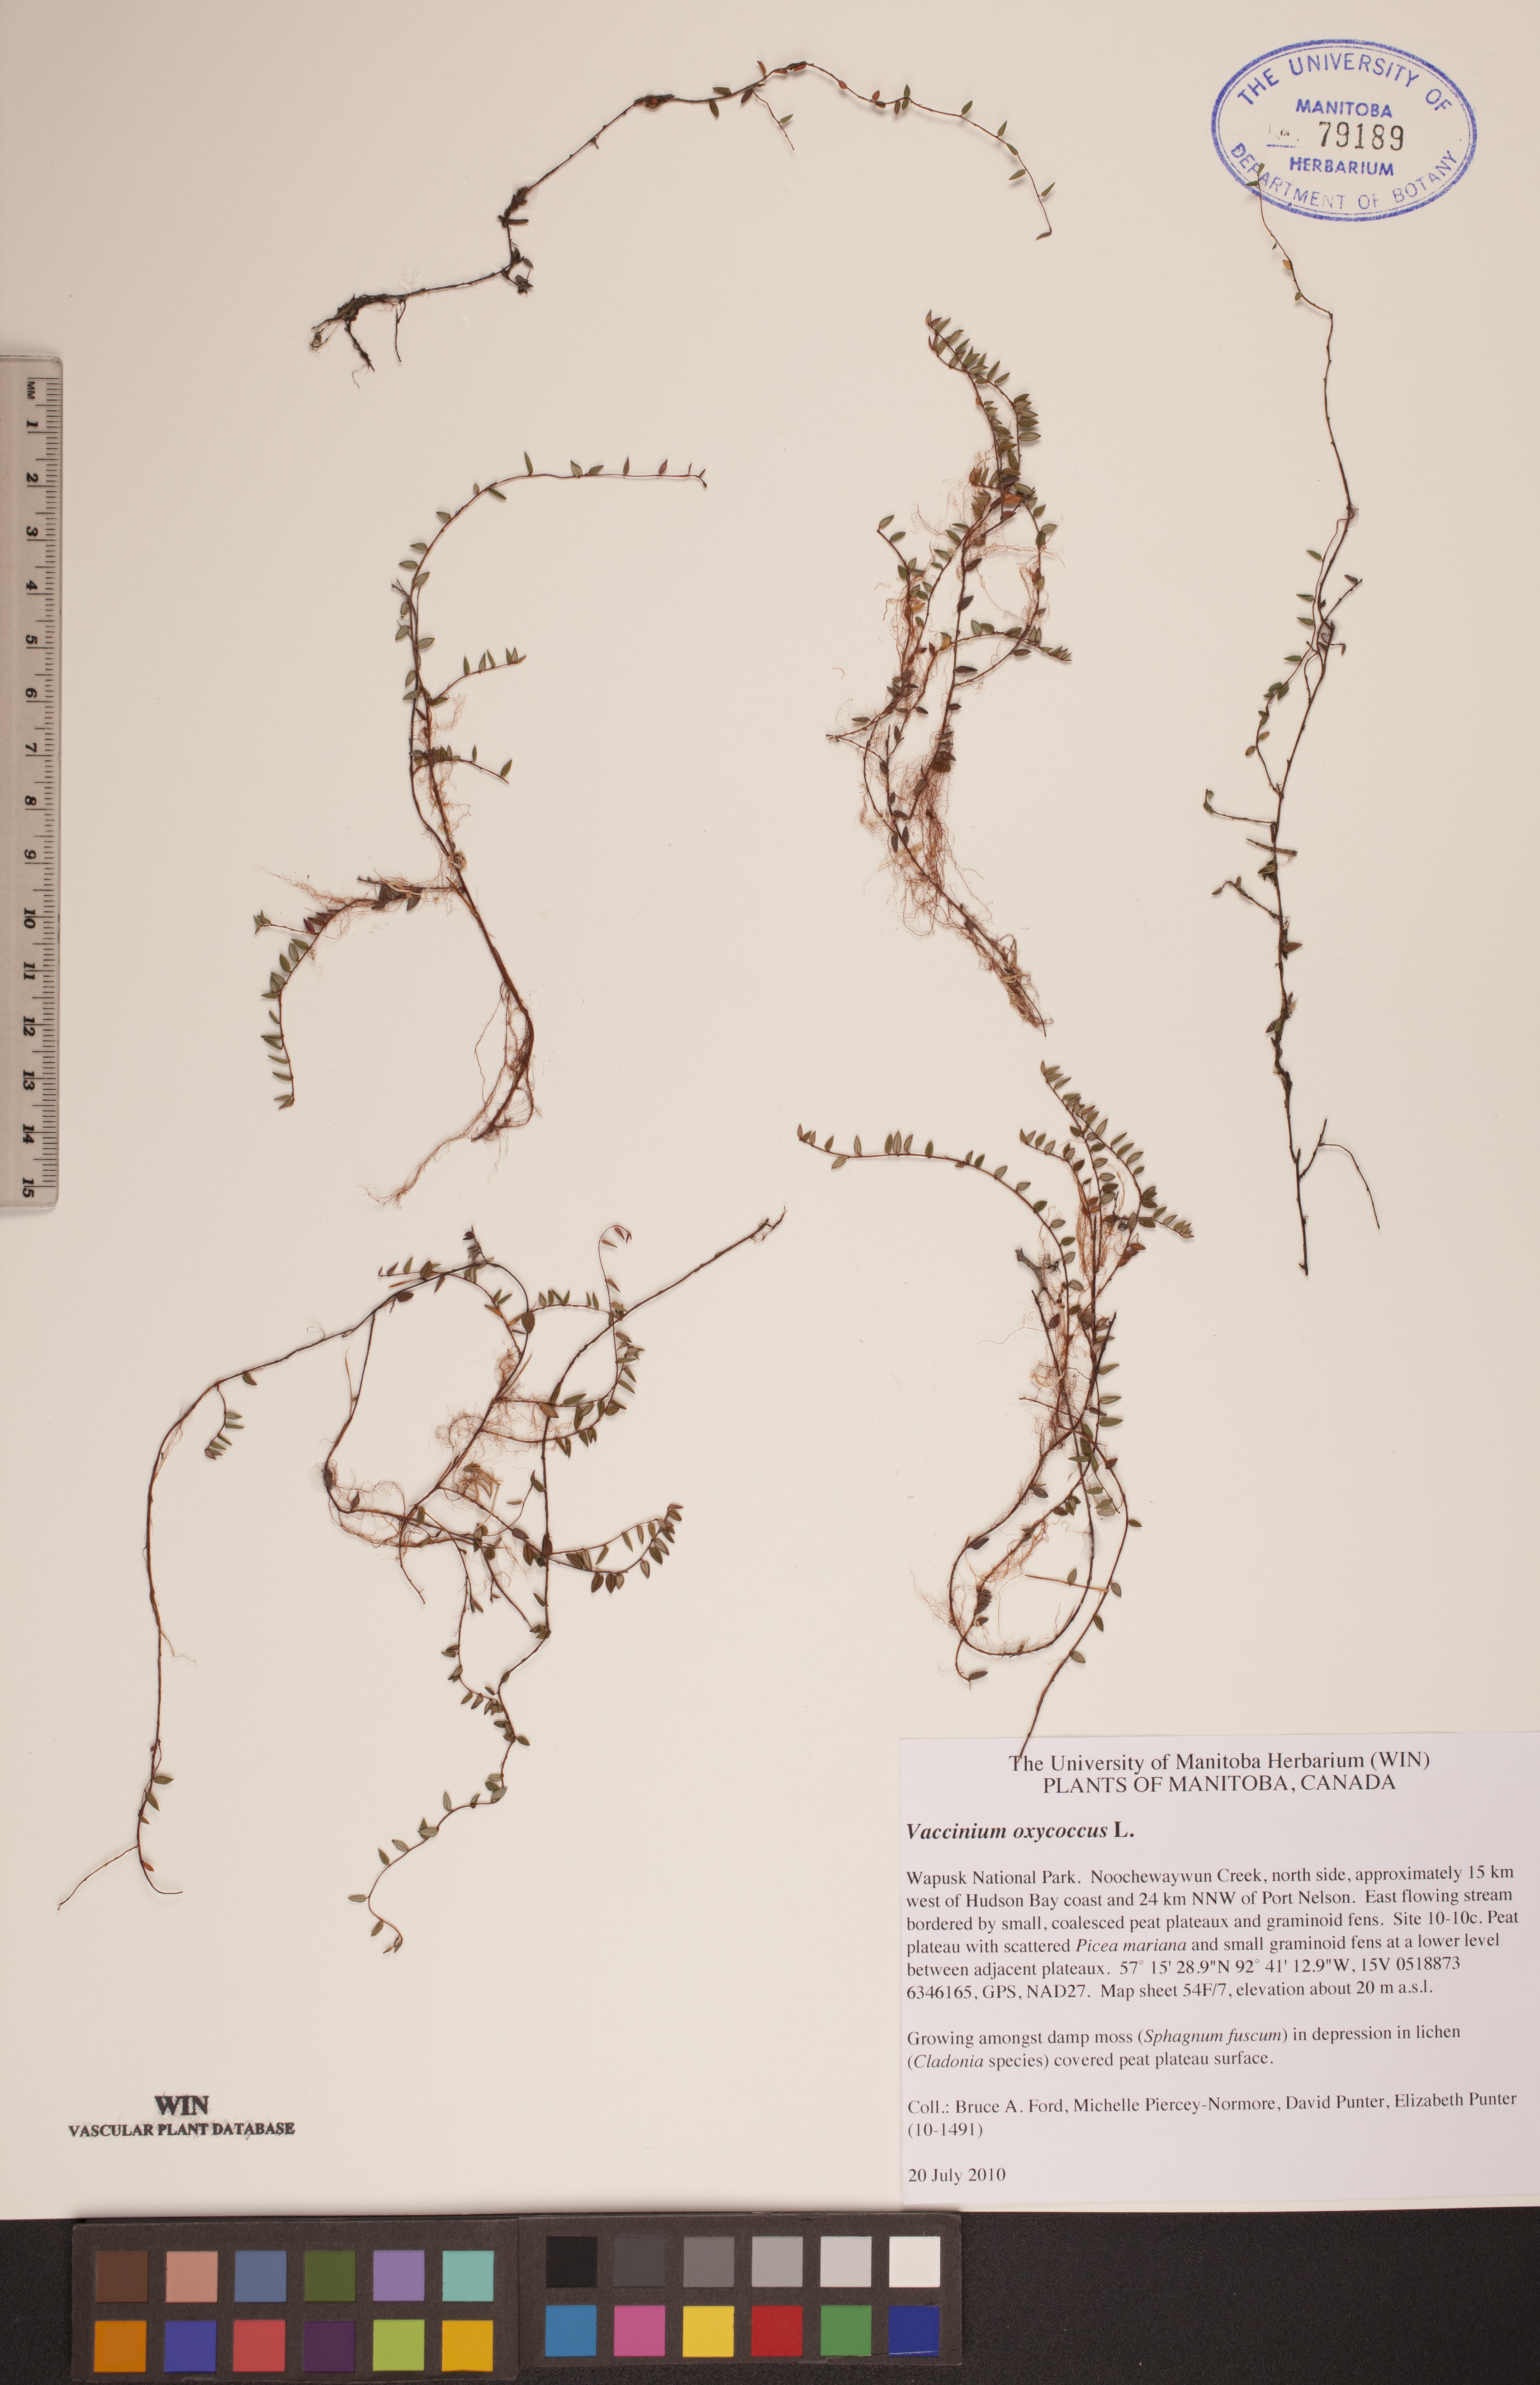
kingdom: Plantae
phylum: Tracheophyta
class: Magnoliopsida
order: Ericales
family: Ericaceae
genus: Vaccinium
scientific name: Vaccinium oxycoccos
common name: Cranberry
